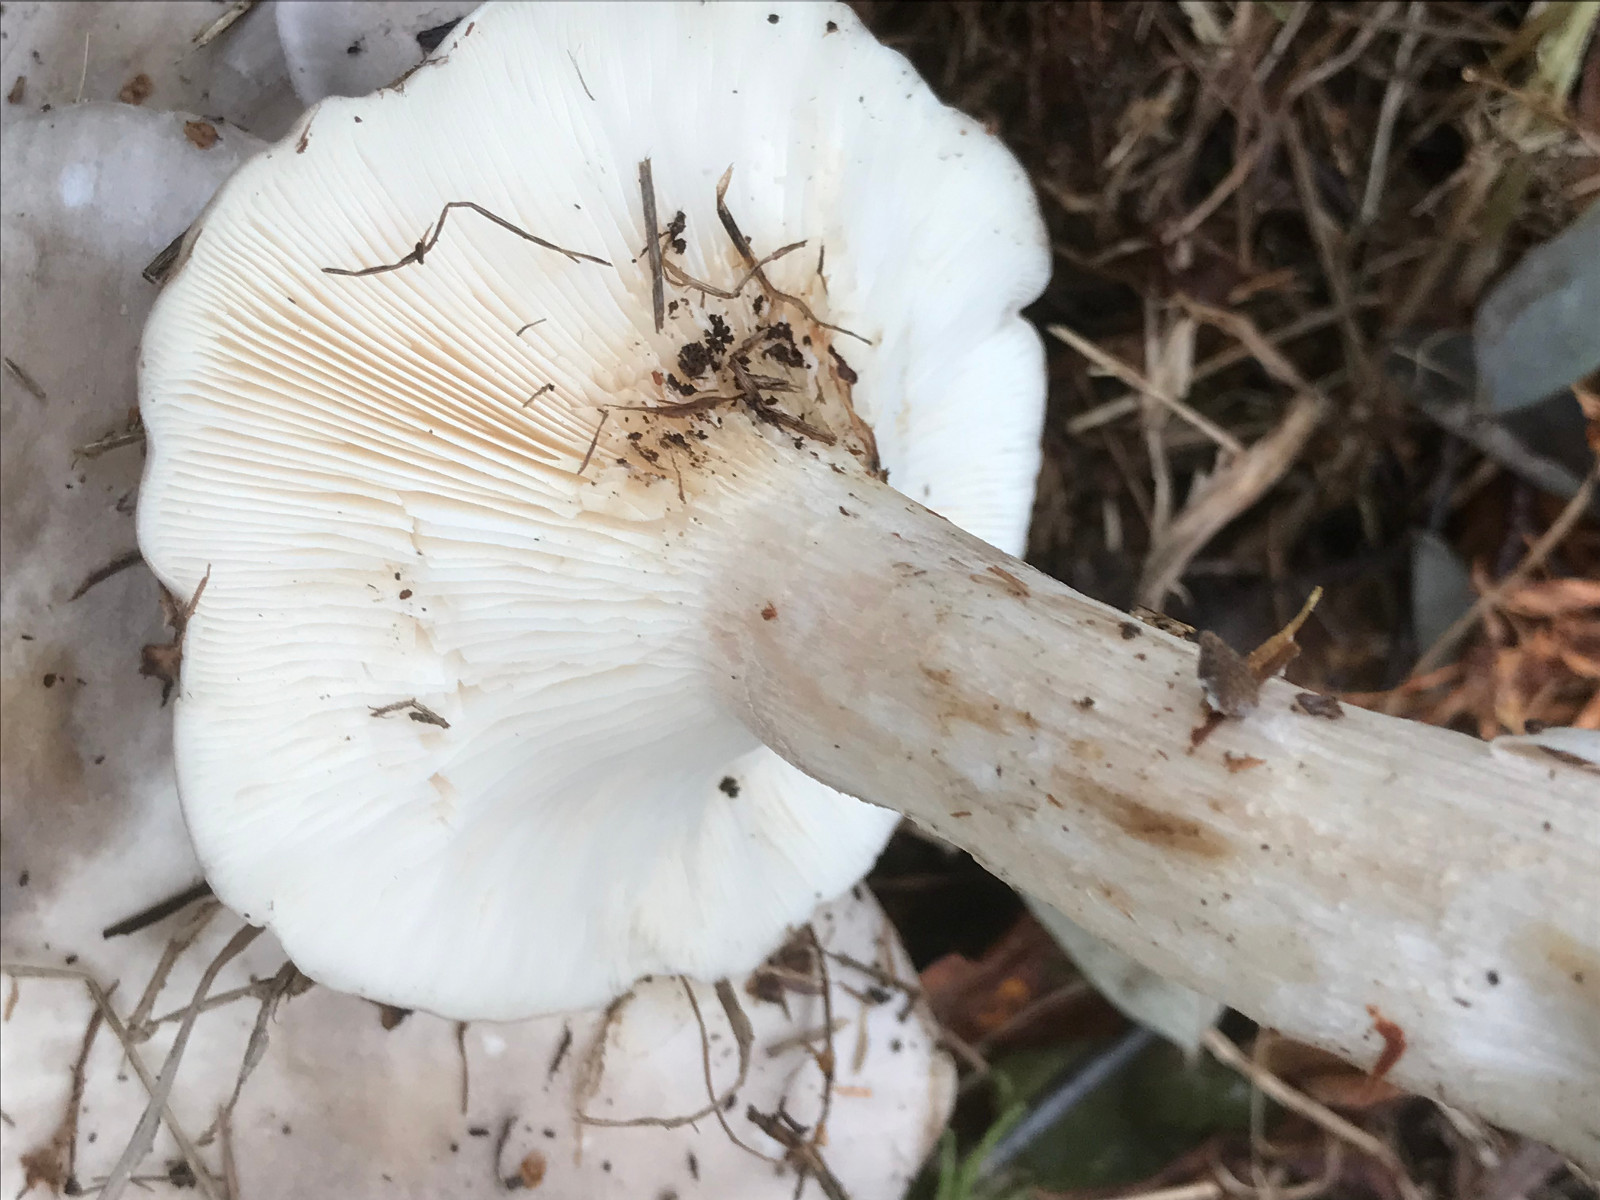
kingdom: Fungi
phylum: Basidiomycota
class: Agaricomycetes
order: Agaricales
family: Tricholomataceae
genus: Clitocybe
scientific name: Clitocybe nebularis
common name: tåge-tragthat
